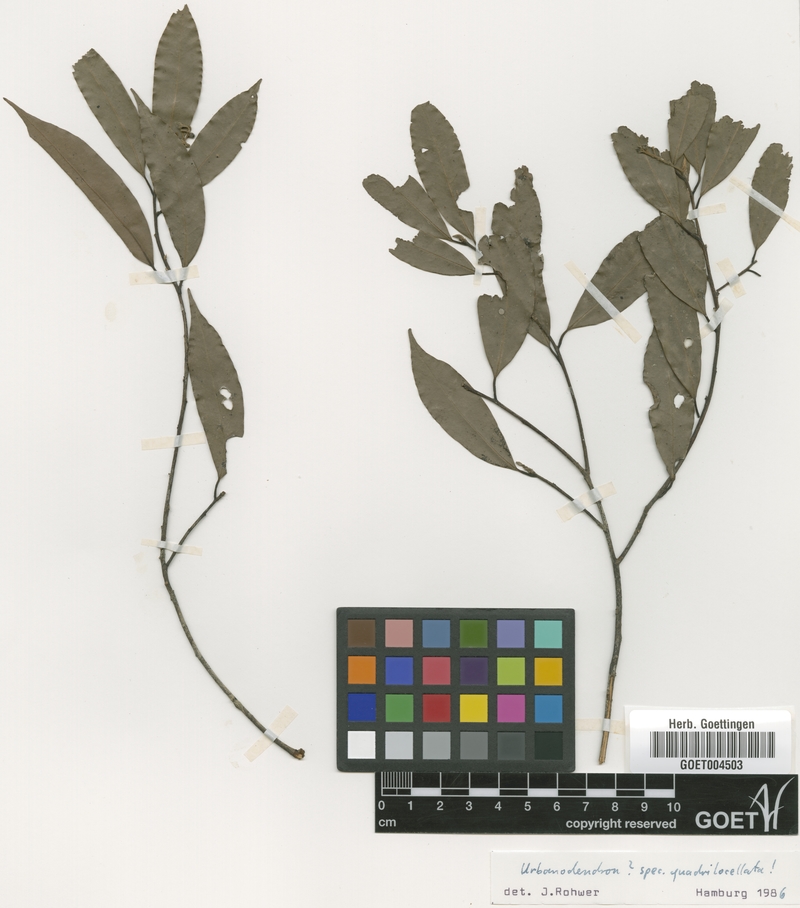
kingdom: Plantae
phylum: Tracheophyta
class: Magnoliopsida
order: Laurales
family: Lauraceae
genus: Urbanodendron
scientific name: Urbanodendron bahiense
